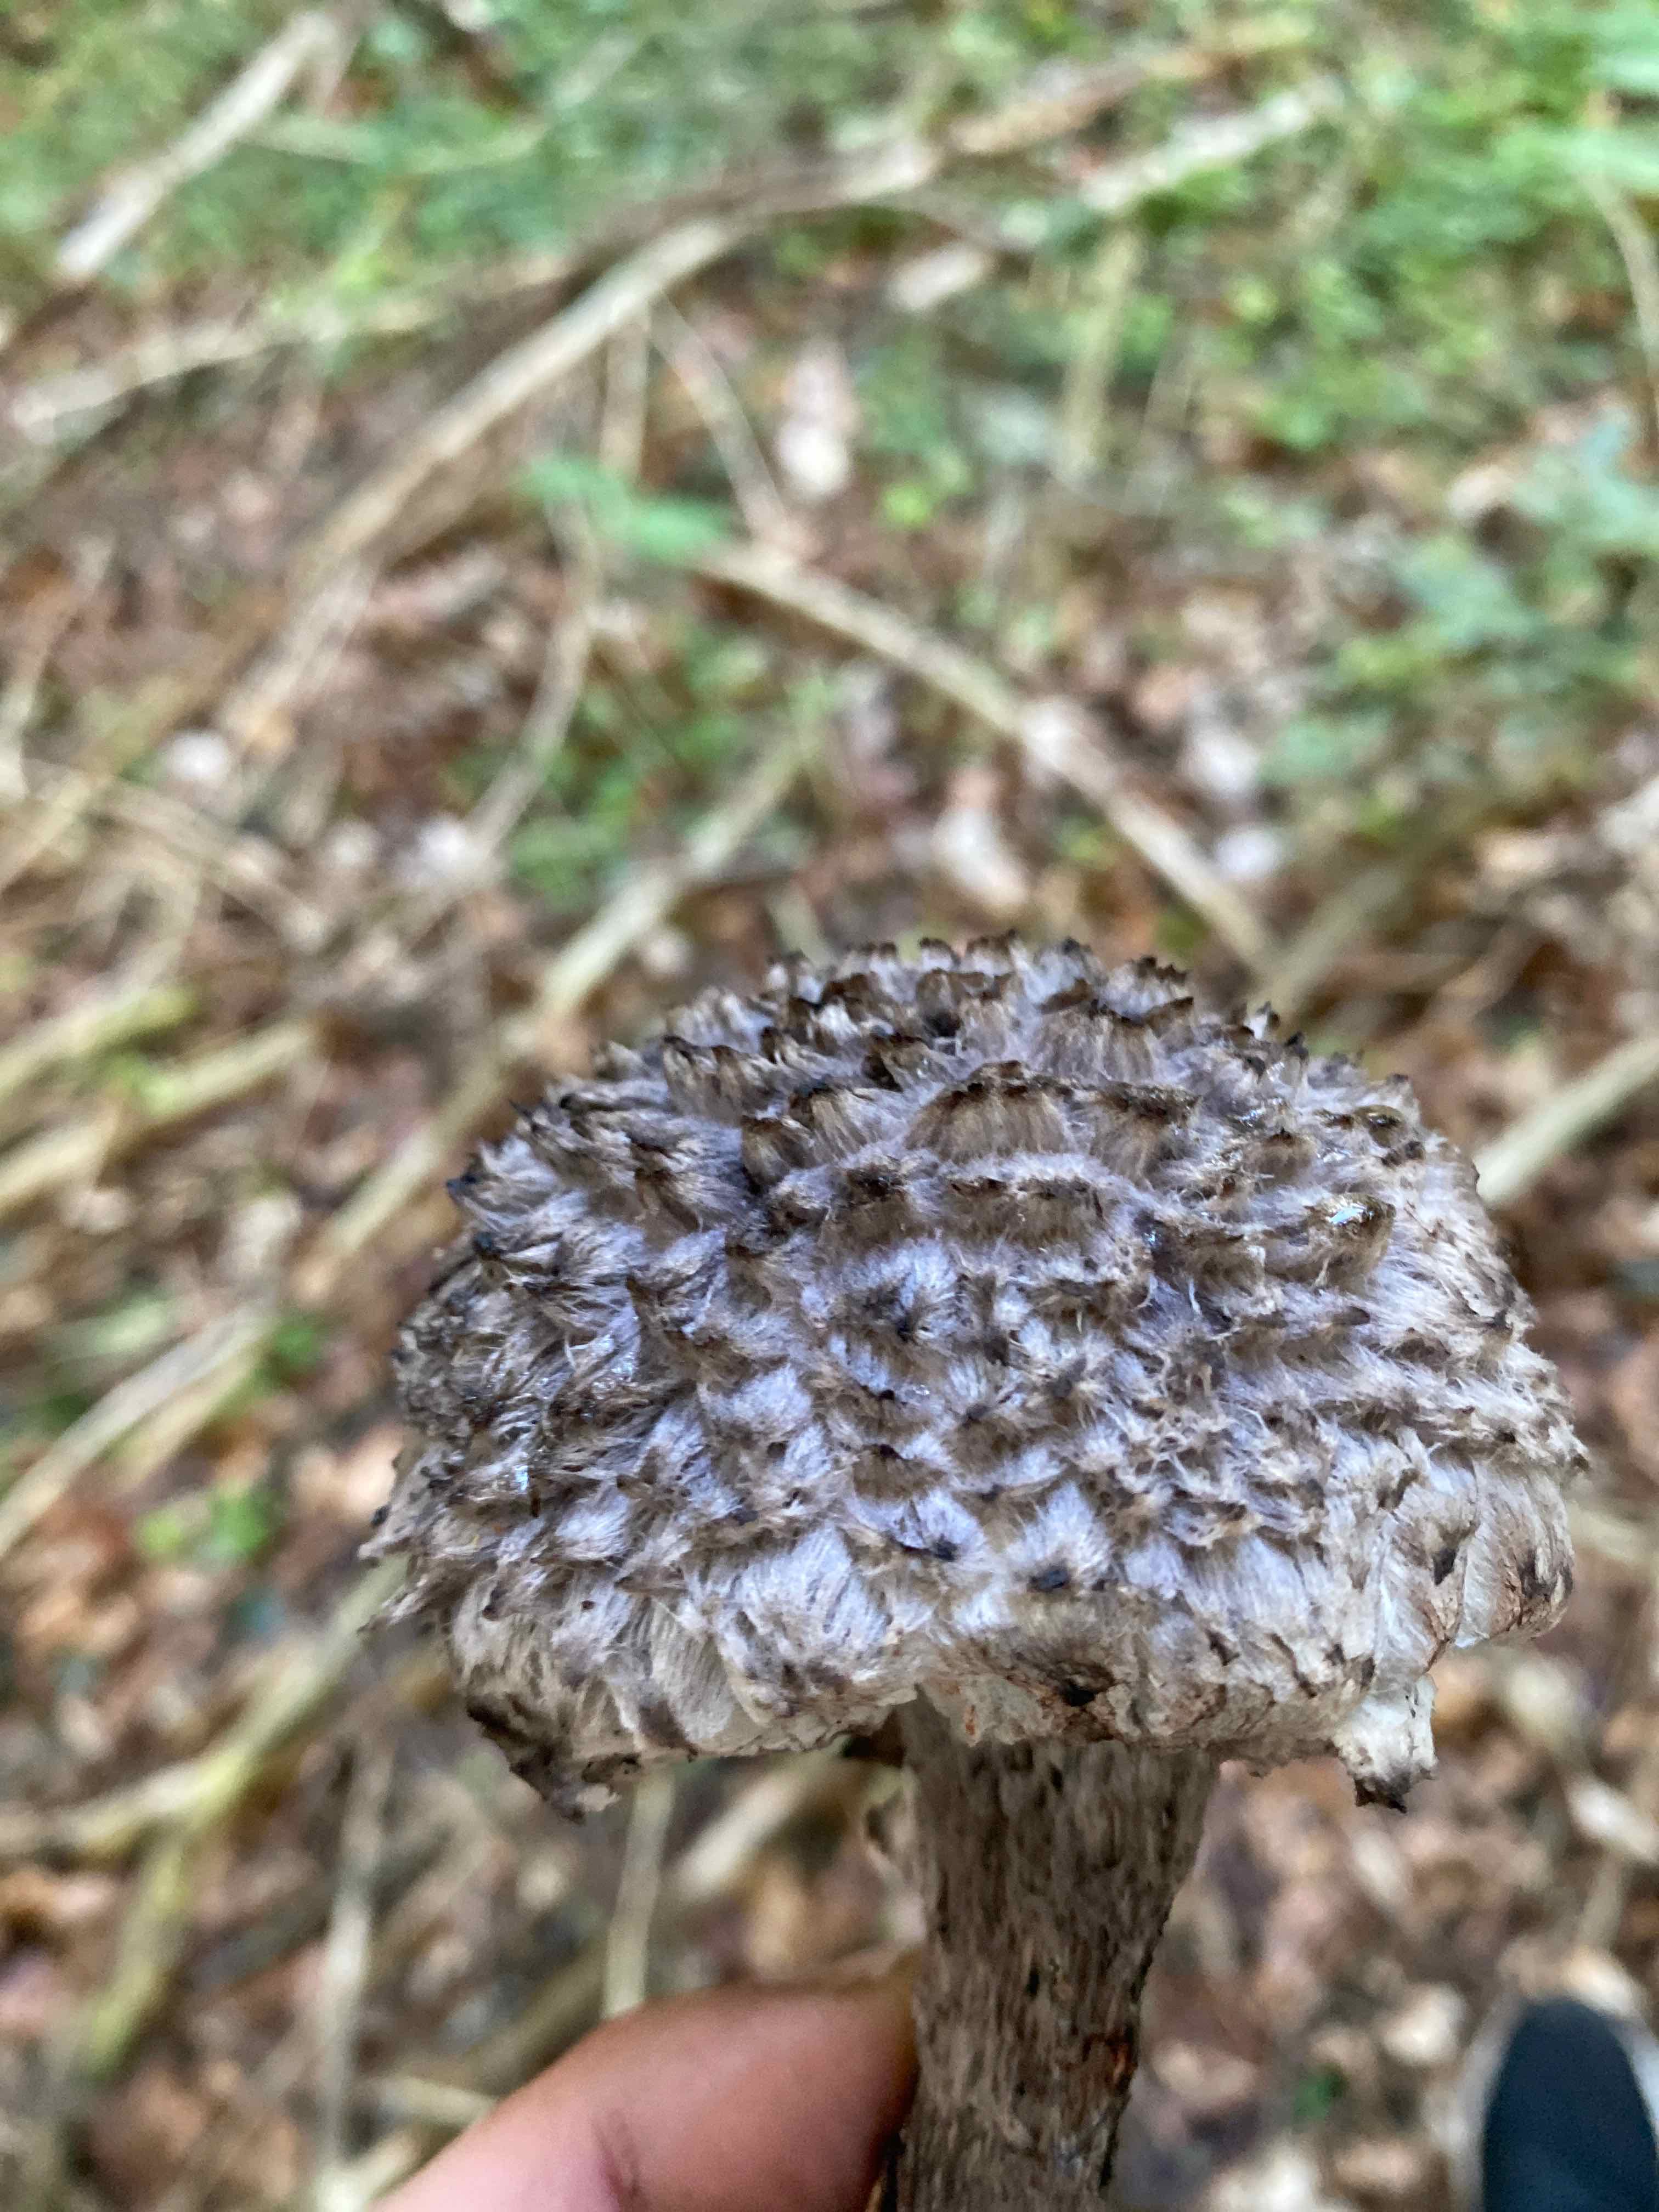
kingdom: Fungi
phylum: Basidiomycota
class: Agaricomycetes
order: Boletales
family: Boletaceae
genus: Strobilomyces
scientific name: Strobilomyces strobilaceus
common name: koglerørhat
